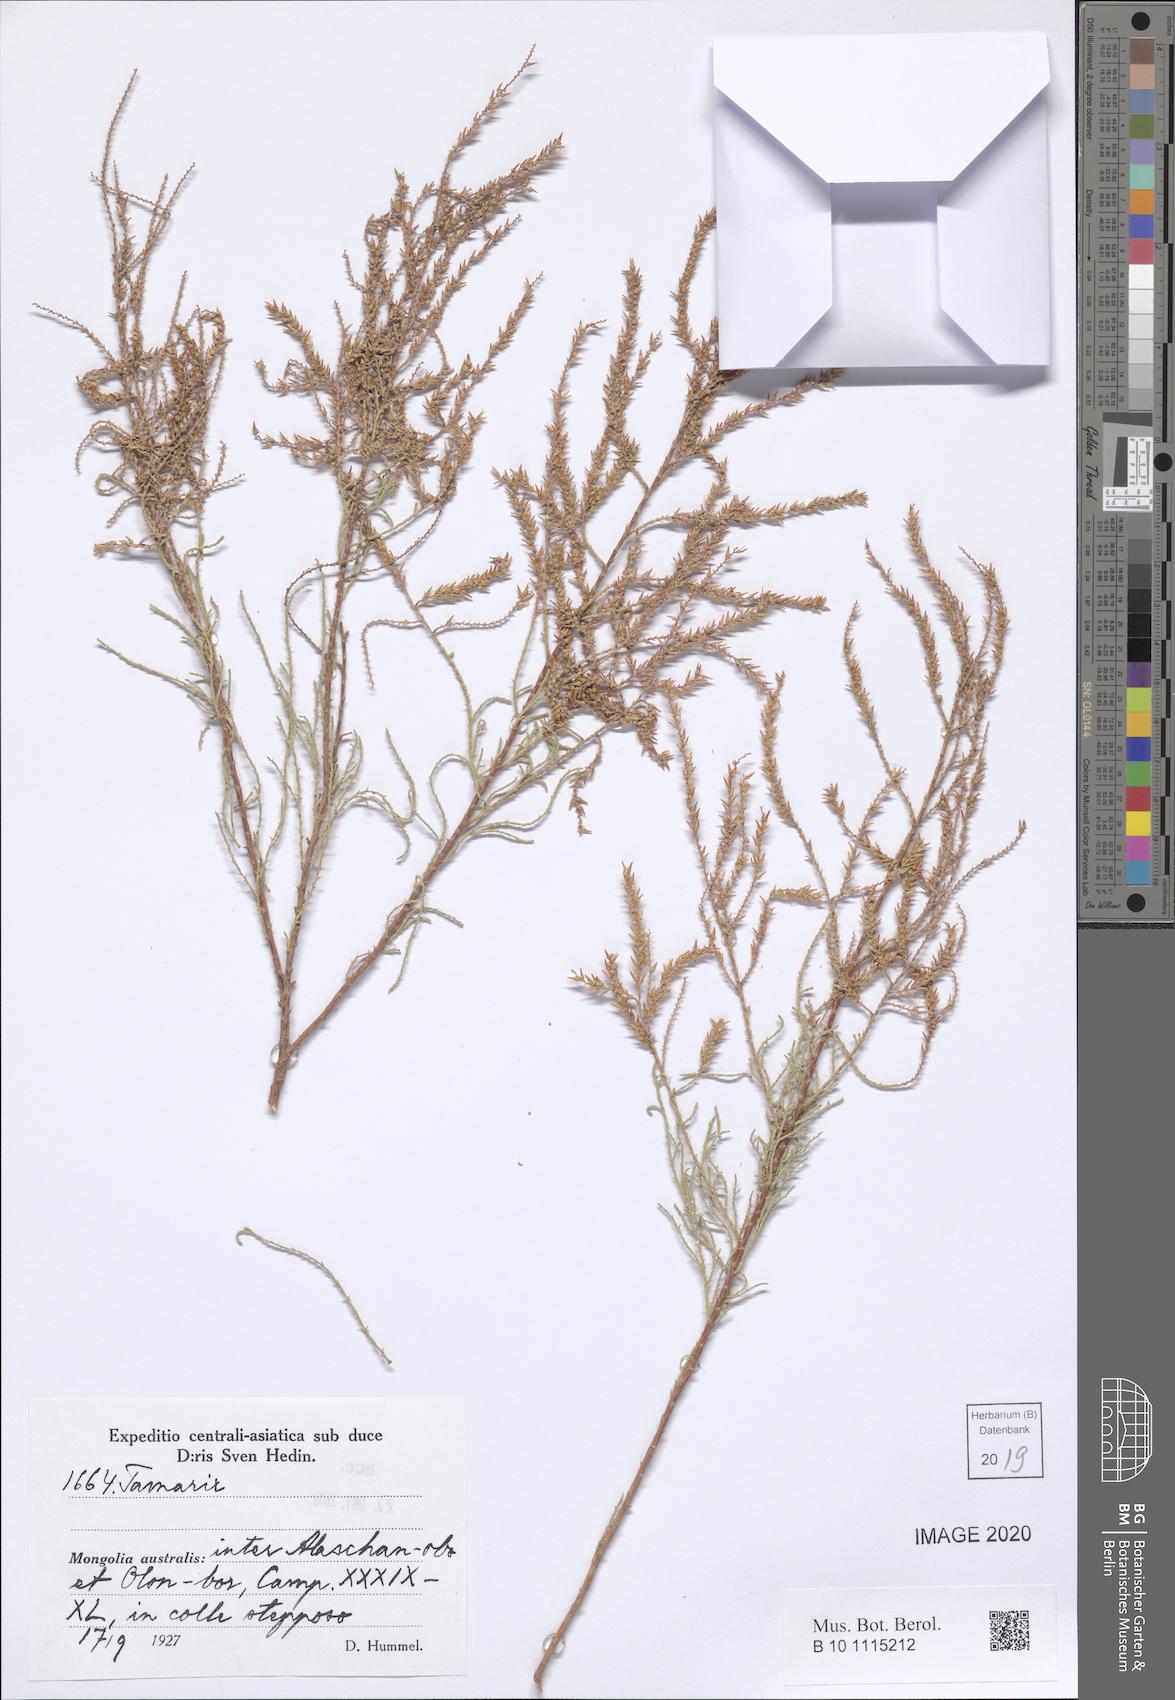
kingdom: Plantae
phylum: Tracheophyta
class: Magnoliopsida
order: Caryophyllales
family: Tamaricaceae
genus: Tamarix
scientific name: Tamarix
